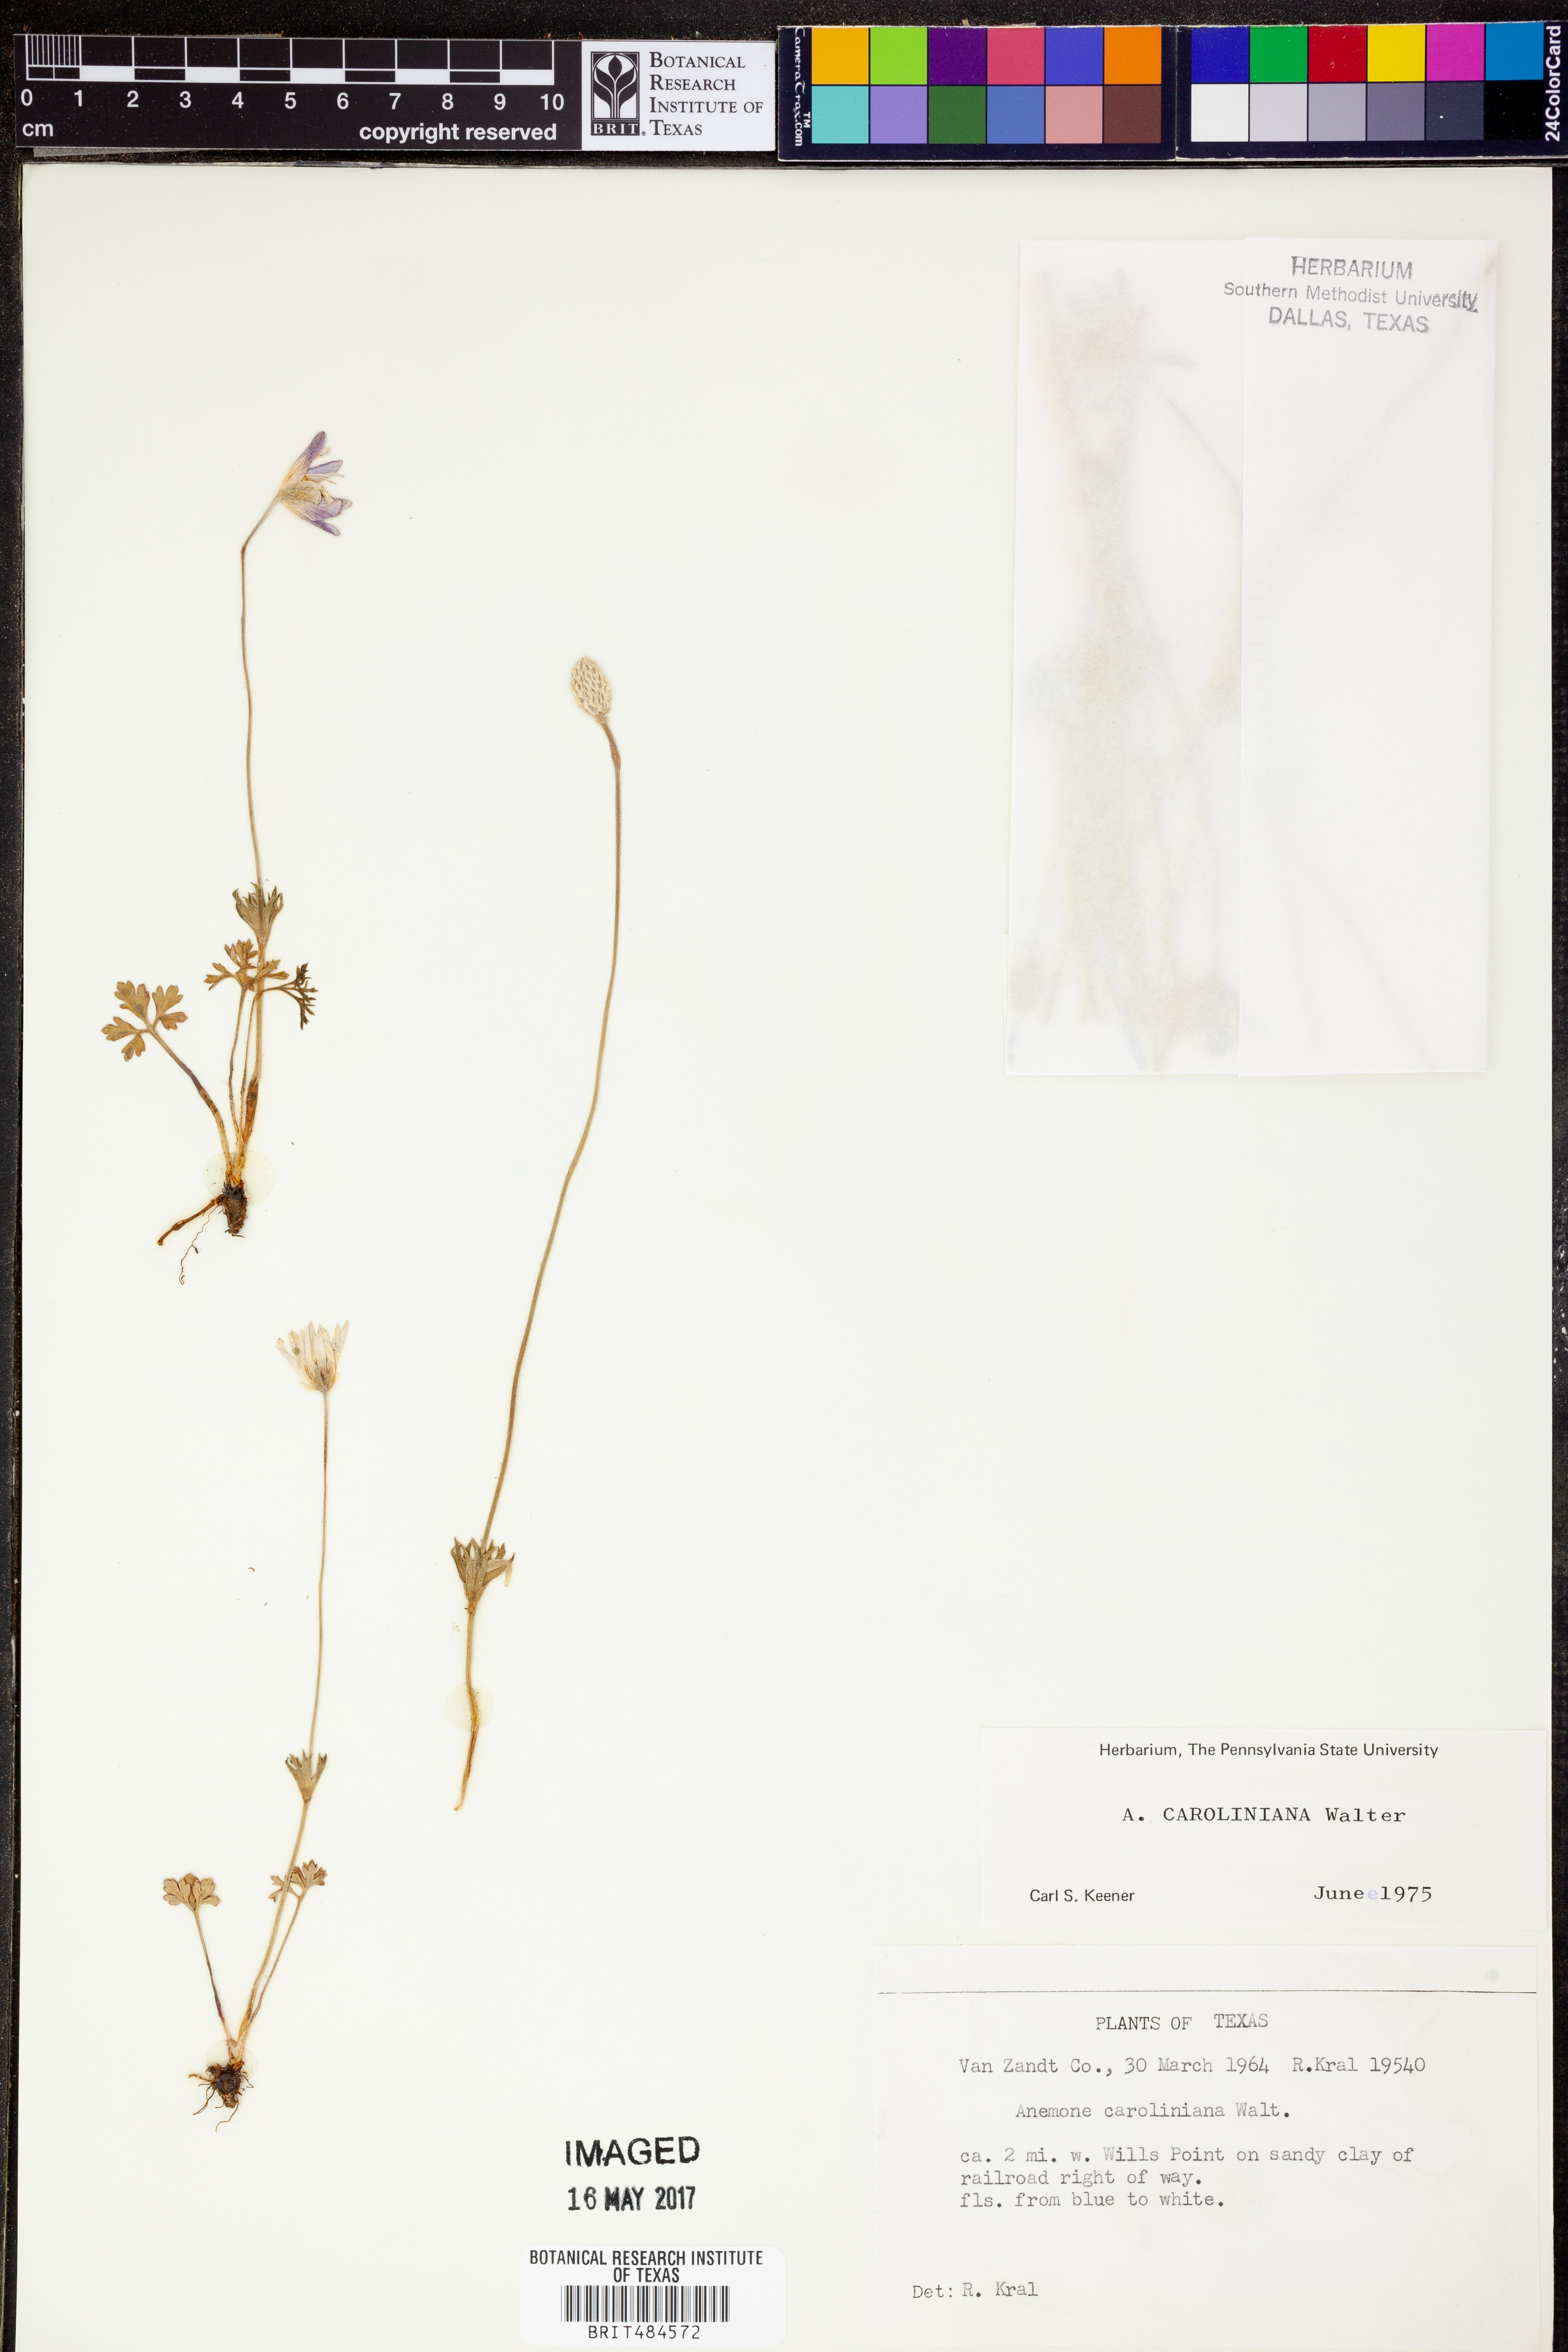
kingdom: Plantae
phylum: Tracheophyta
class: Magnoliopsida
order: Ranunculales
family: Ranunculaceae
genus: Anemone
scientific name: Anemone caroliniana
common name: Carolina anemone
